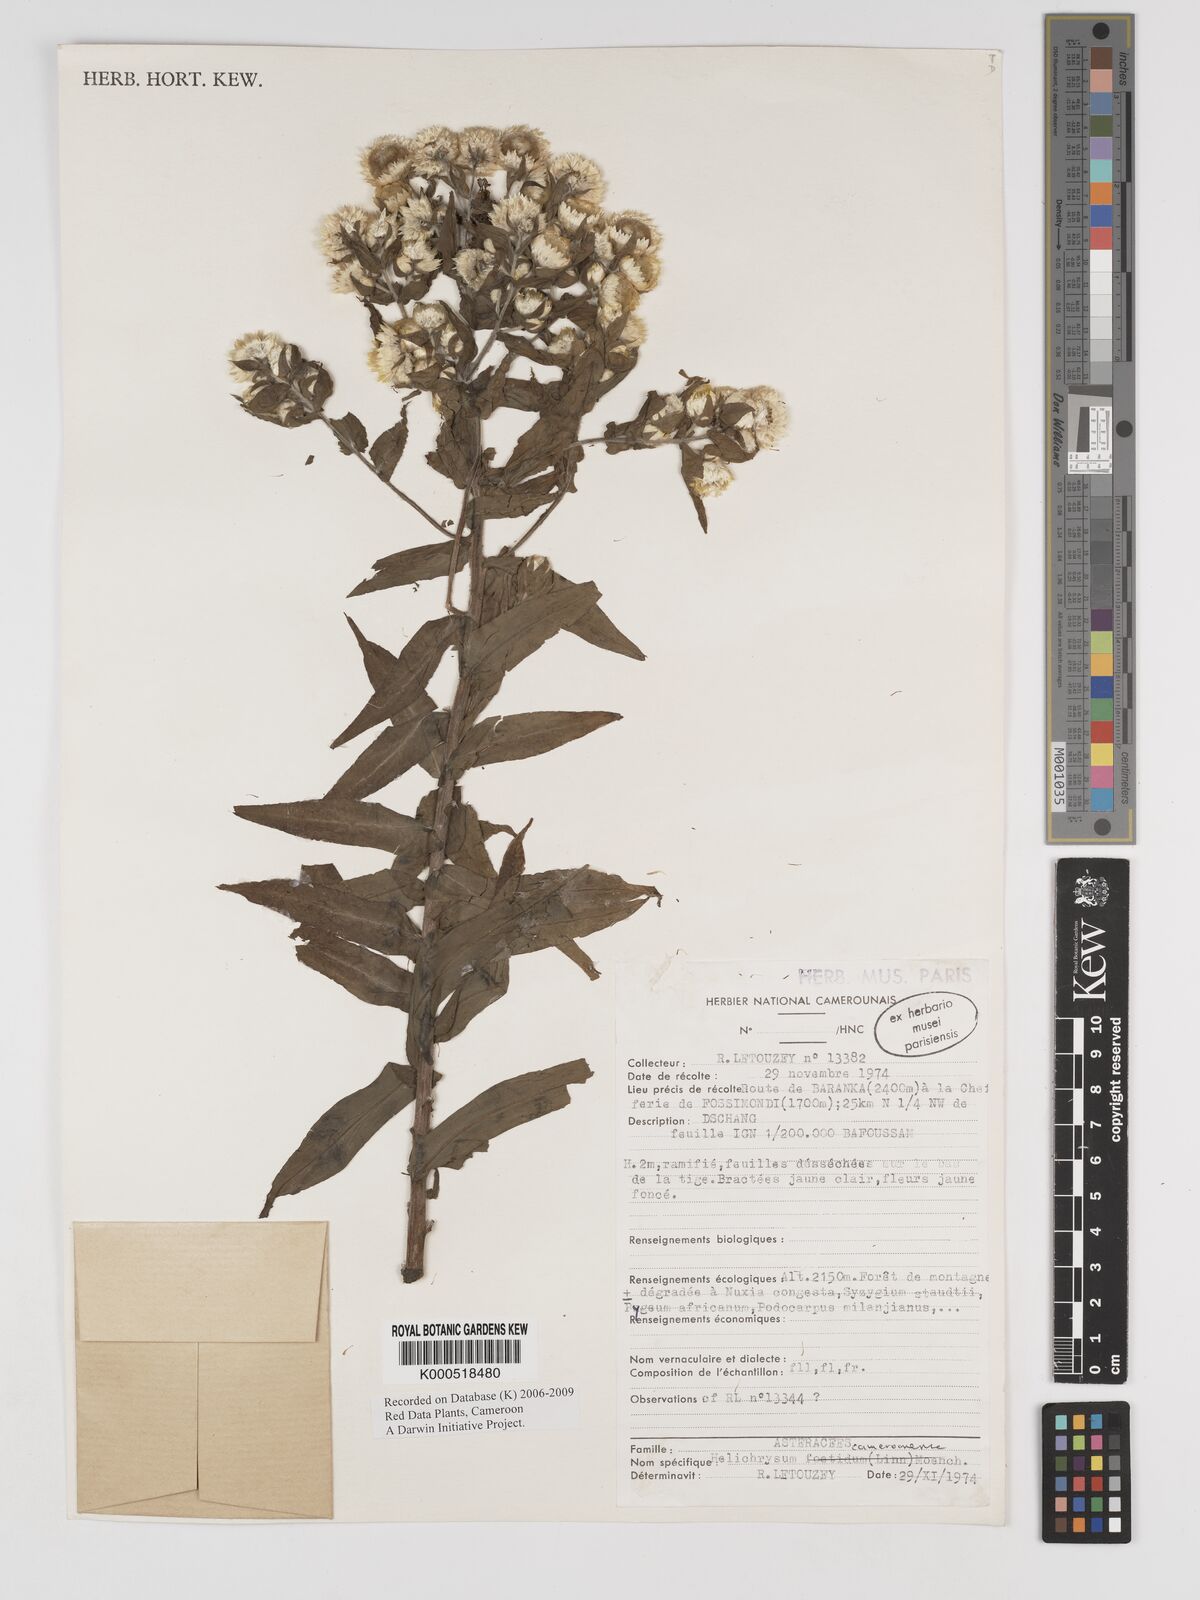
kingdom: Plantae
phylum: Tracheophyta
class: Magnoliopsida
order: Asterales
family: Asteraceae
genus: Helichrysum
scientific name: Helichrysum cameroonense
